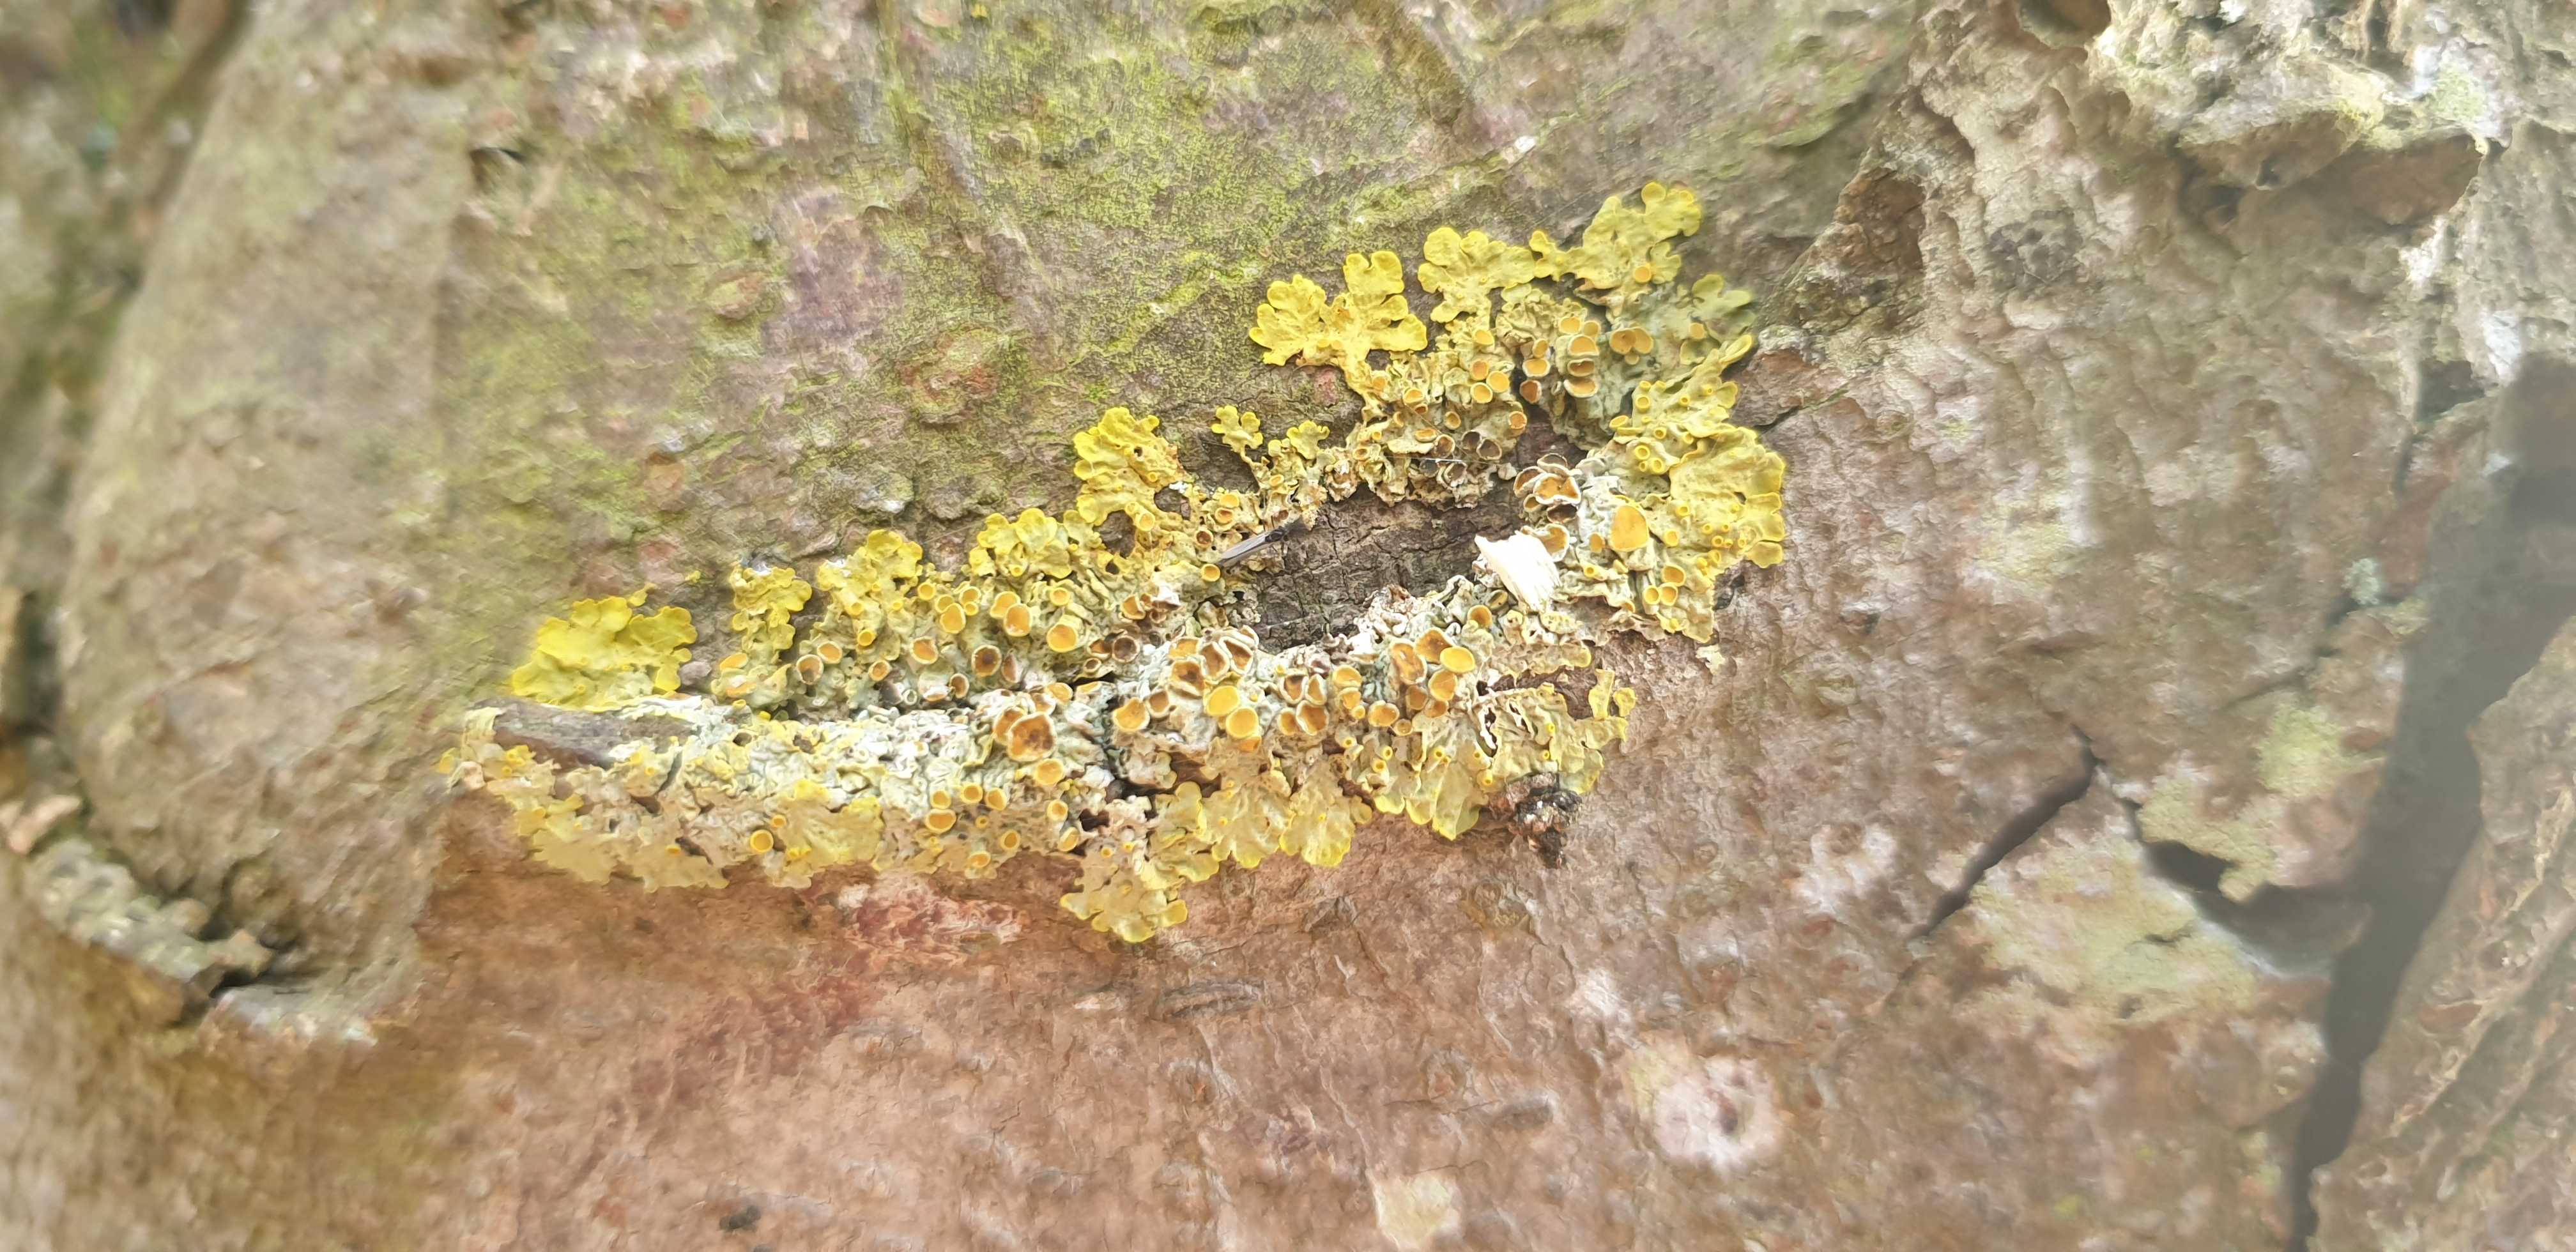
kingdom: Fungi
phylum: Ascomycota
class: Lecanoromycetes
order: Teloschistales
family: Teloschistaceae
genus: Xanthoria
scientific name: Xanthoria parietina
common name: almindelig væggelav
